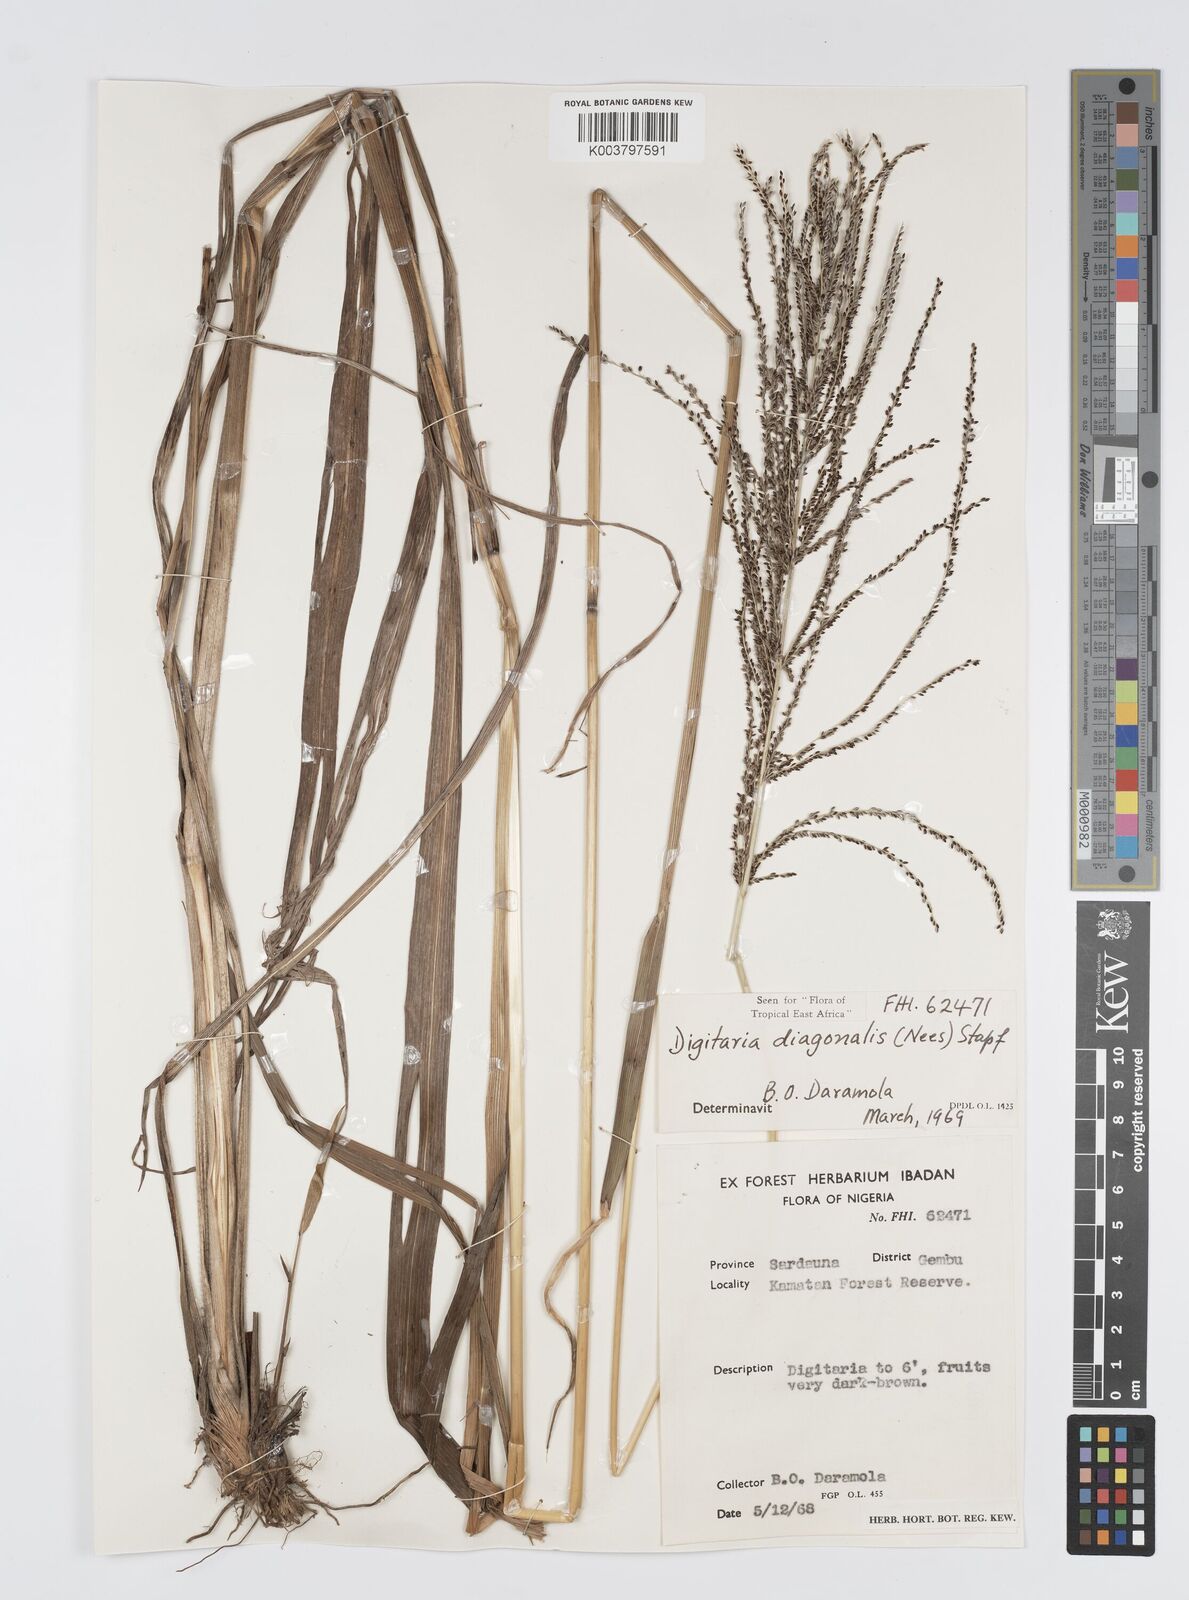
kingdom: Plantae
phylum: Tracheophyta
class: Liliopsida
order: Poales
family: Poaceae
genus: Digitaria
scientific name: Digitaria diagonalis
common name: Brown-seed finger grass
